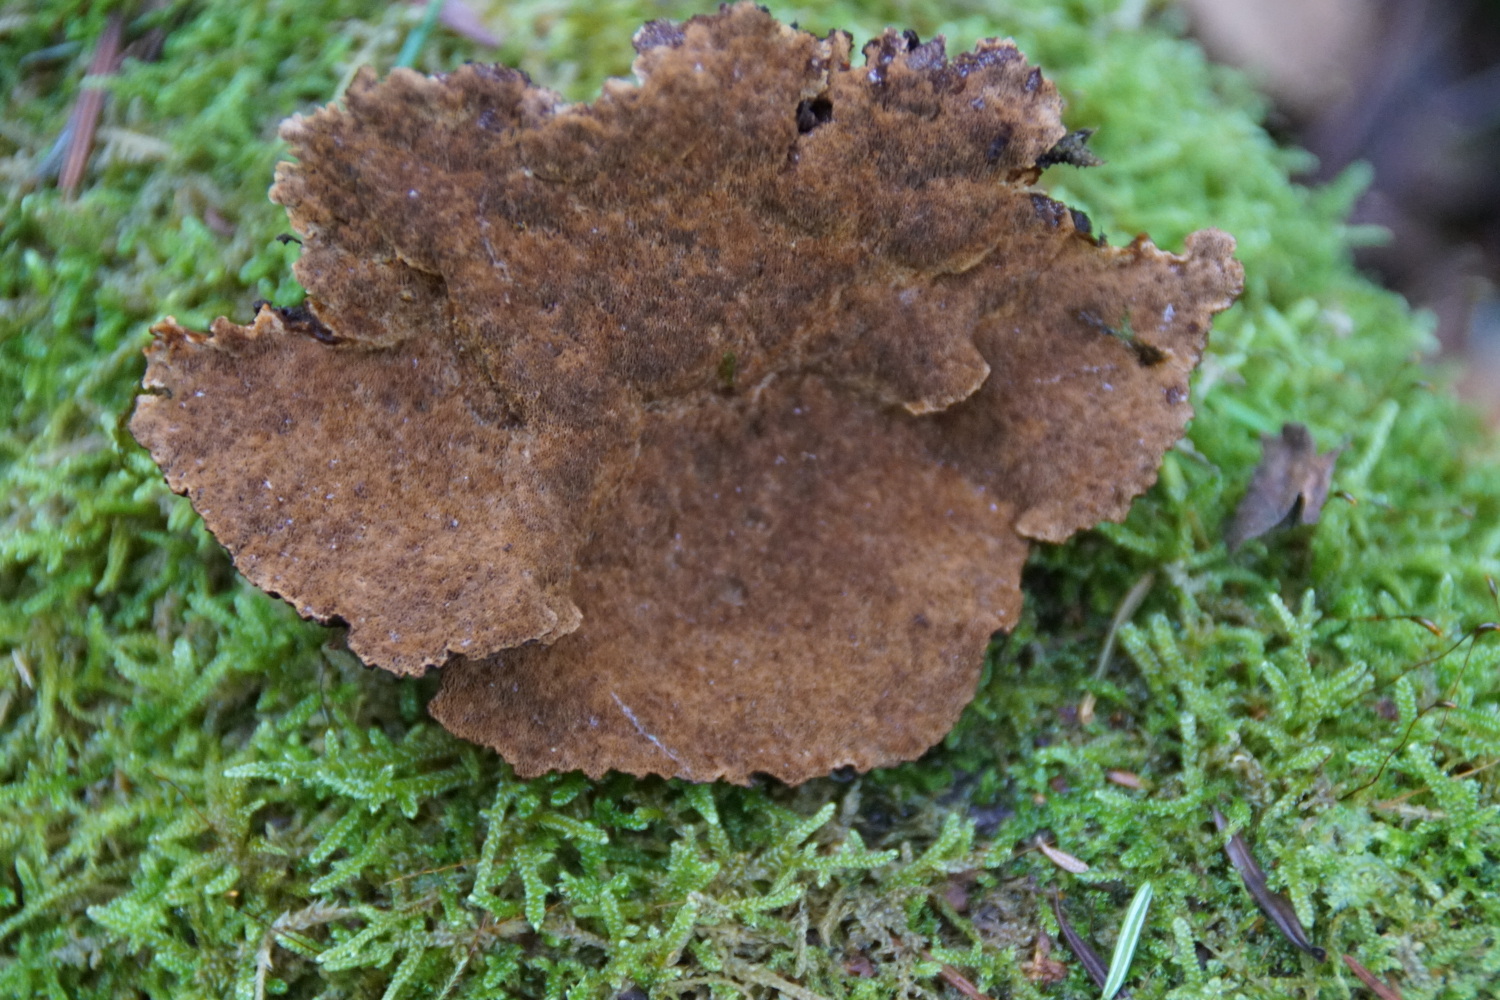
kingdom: Fungi
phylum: Basidiomycota
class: Agaricomycetes
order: Polyporales
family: Ischnodermataceae
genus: Ischnoderma
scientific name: Ischnoderma benzoinum
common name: gran-tjæreporesvamp
